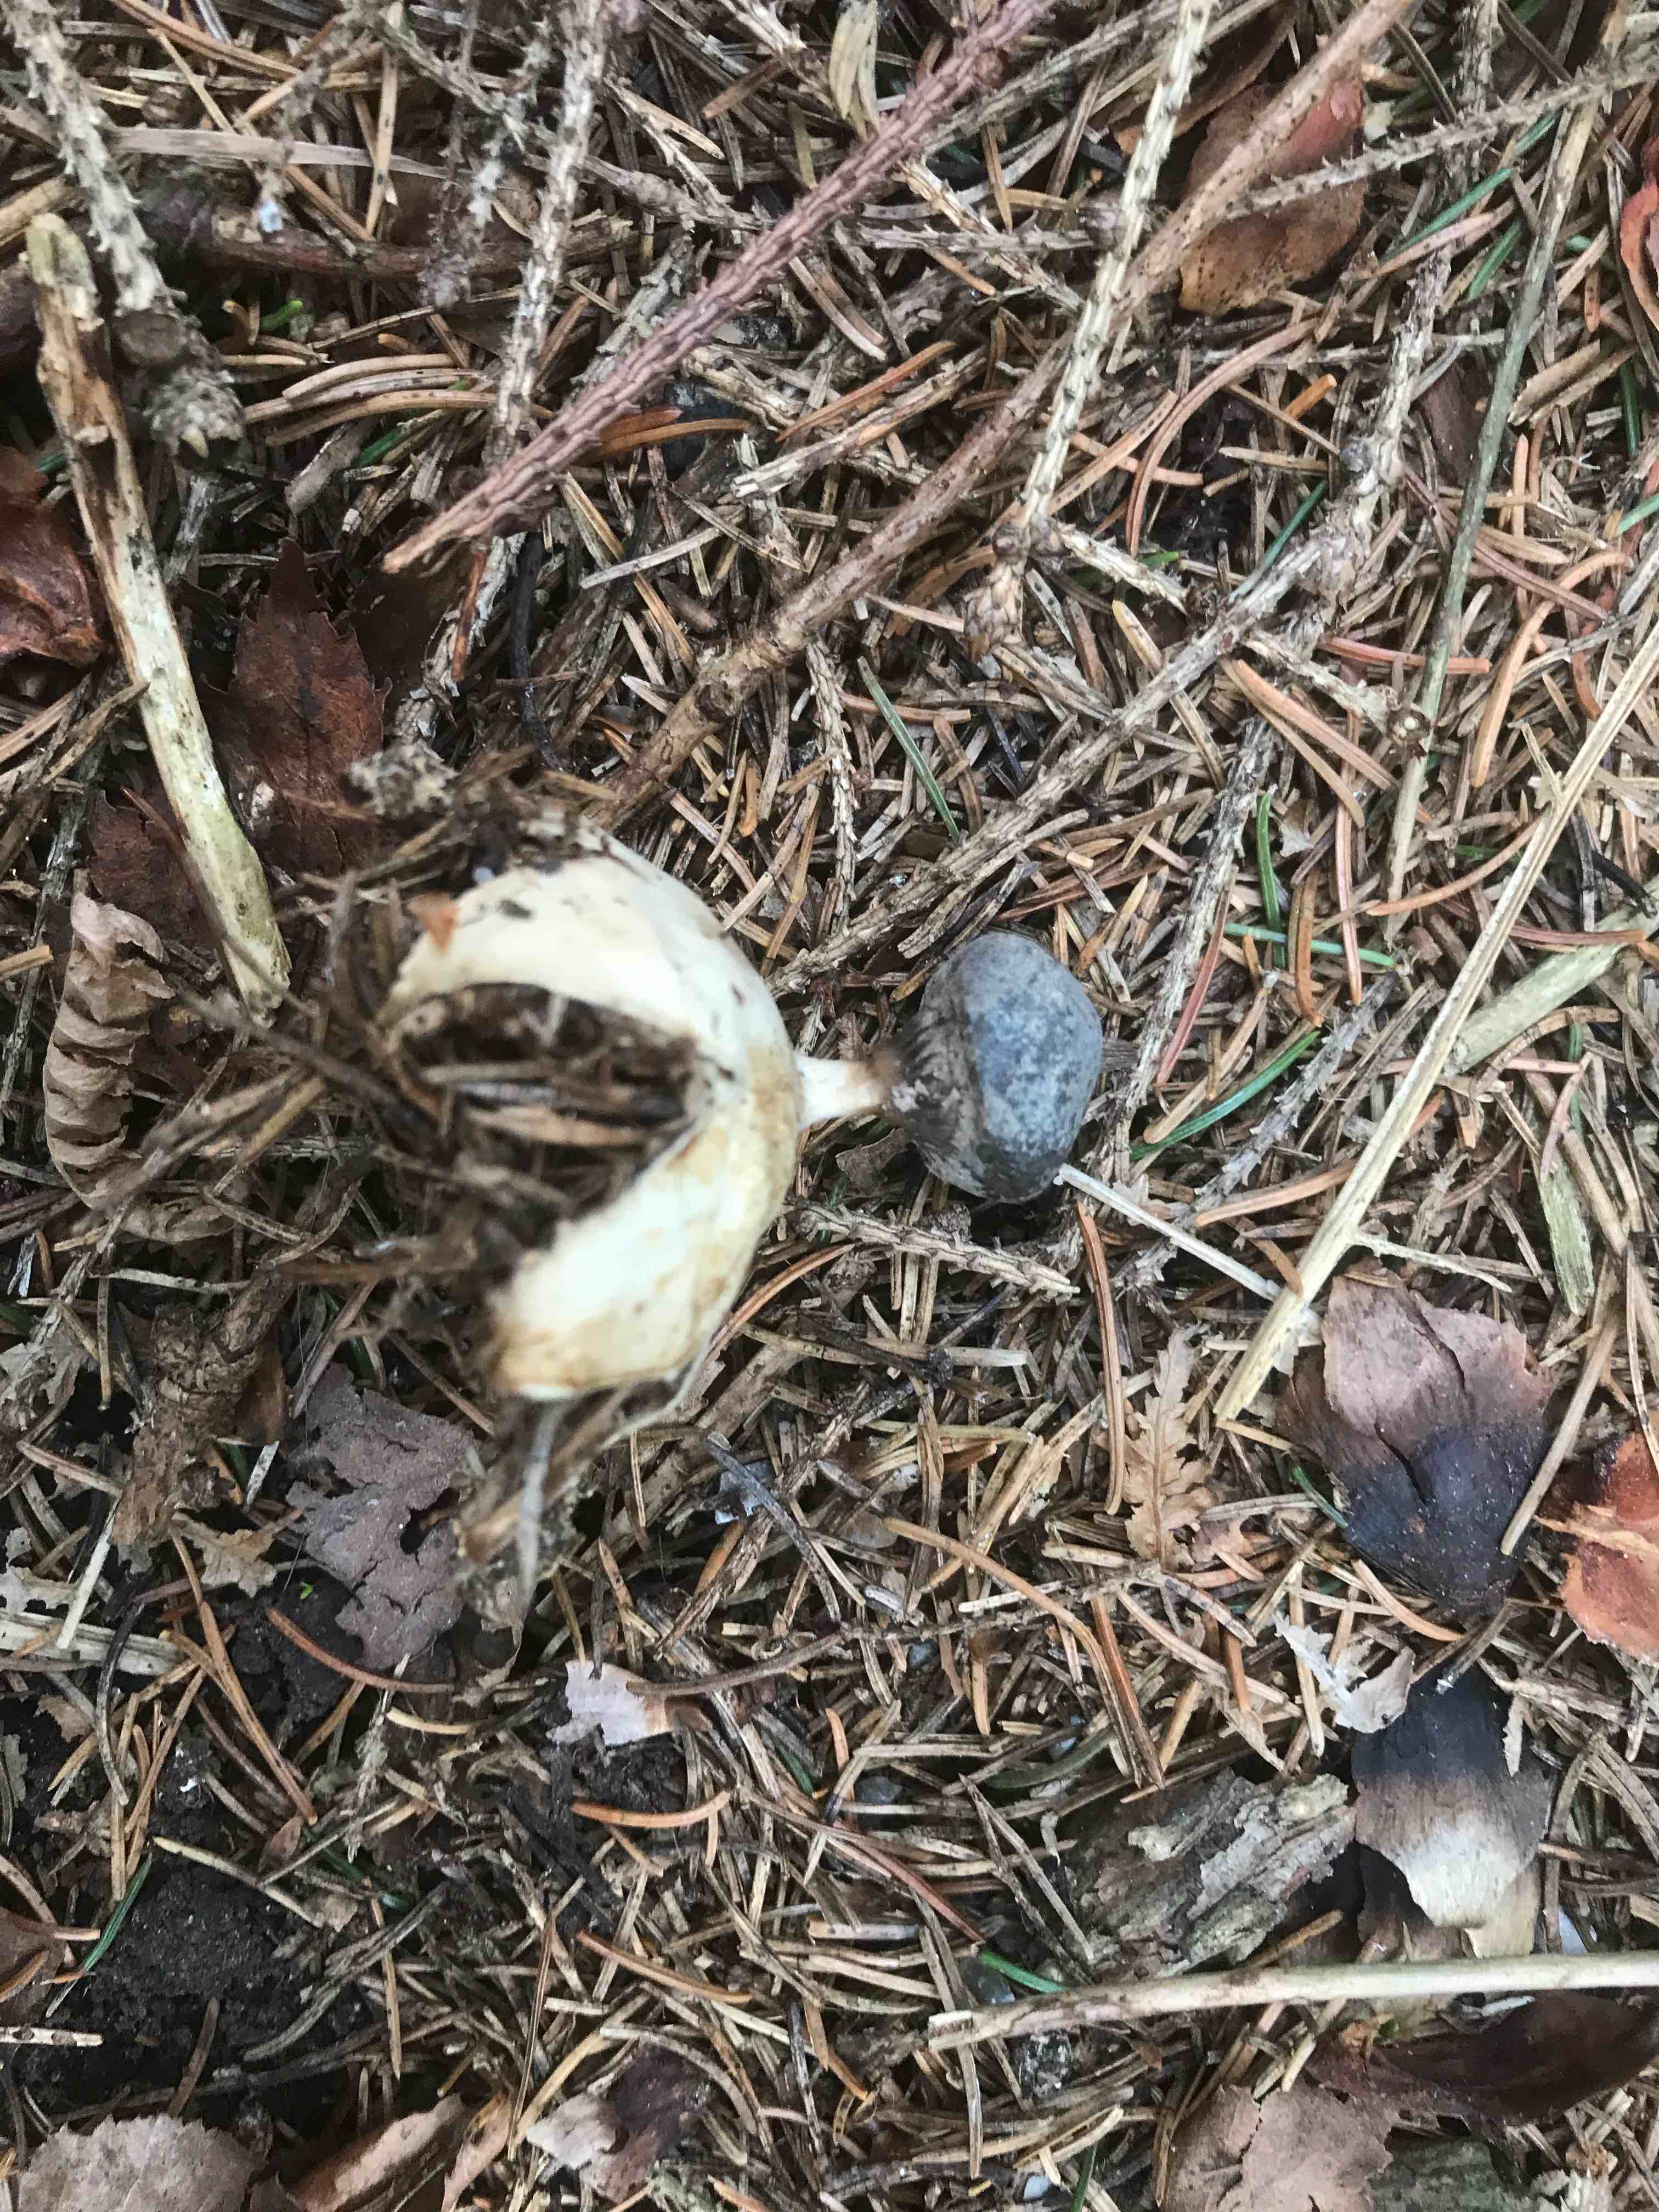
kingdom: Fungi
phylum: Basidiomycota
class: Agaricomycetes
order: Geastrales
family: Geastraceae
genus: Geastrum
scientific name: Geastrum pectinatum
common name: stilket stjernebold
